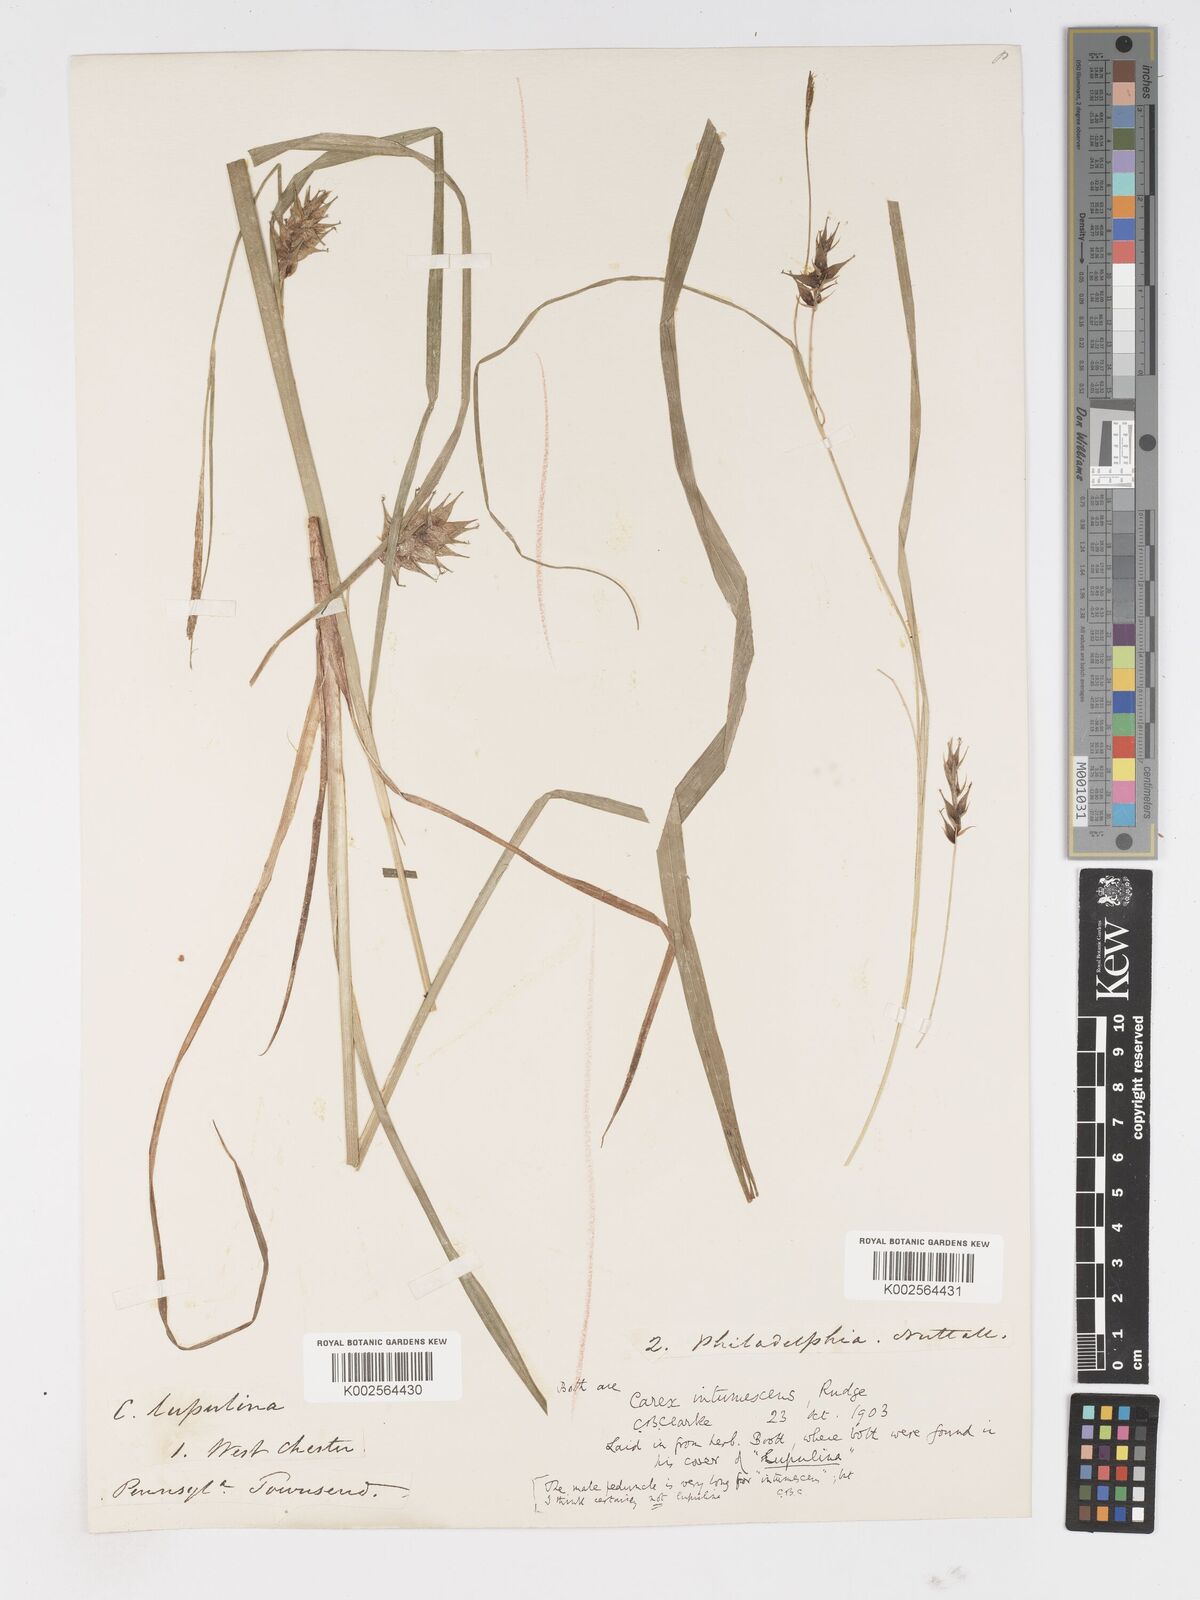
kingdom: Plantae
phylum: Tracheophyta
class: Liliopsida
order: Poales
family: Cyperaceae
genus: Carex
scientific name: Carex intumescens
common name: Greater bladder sedge
